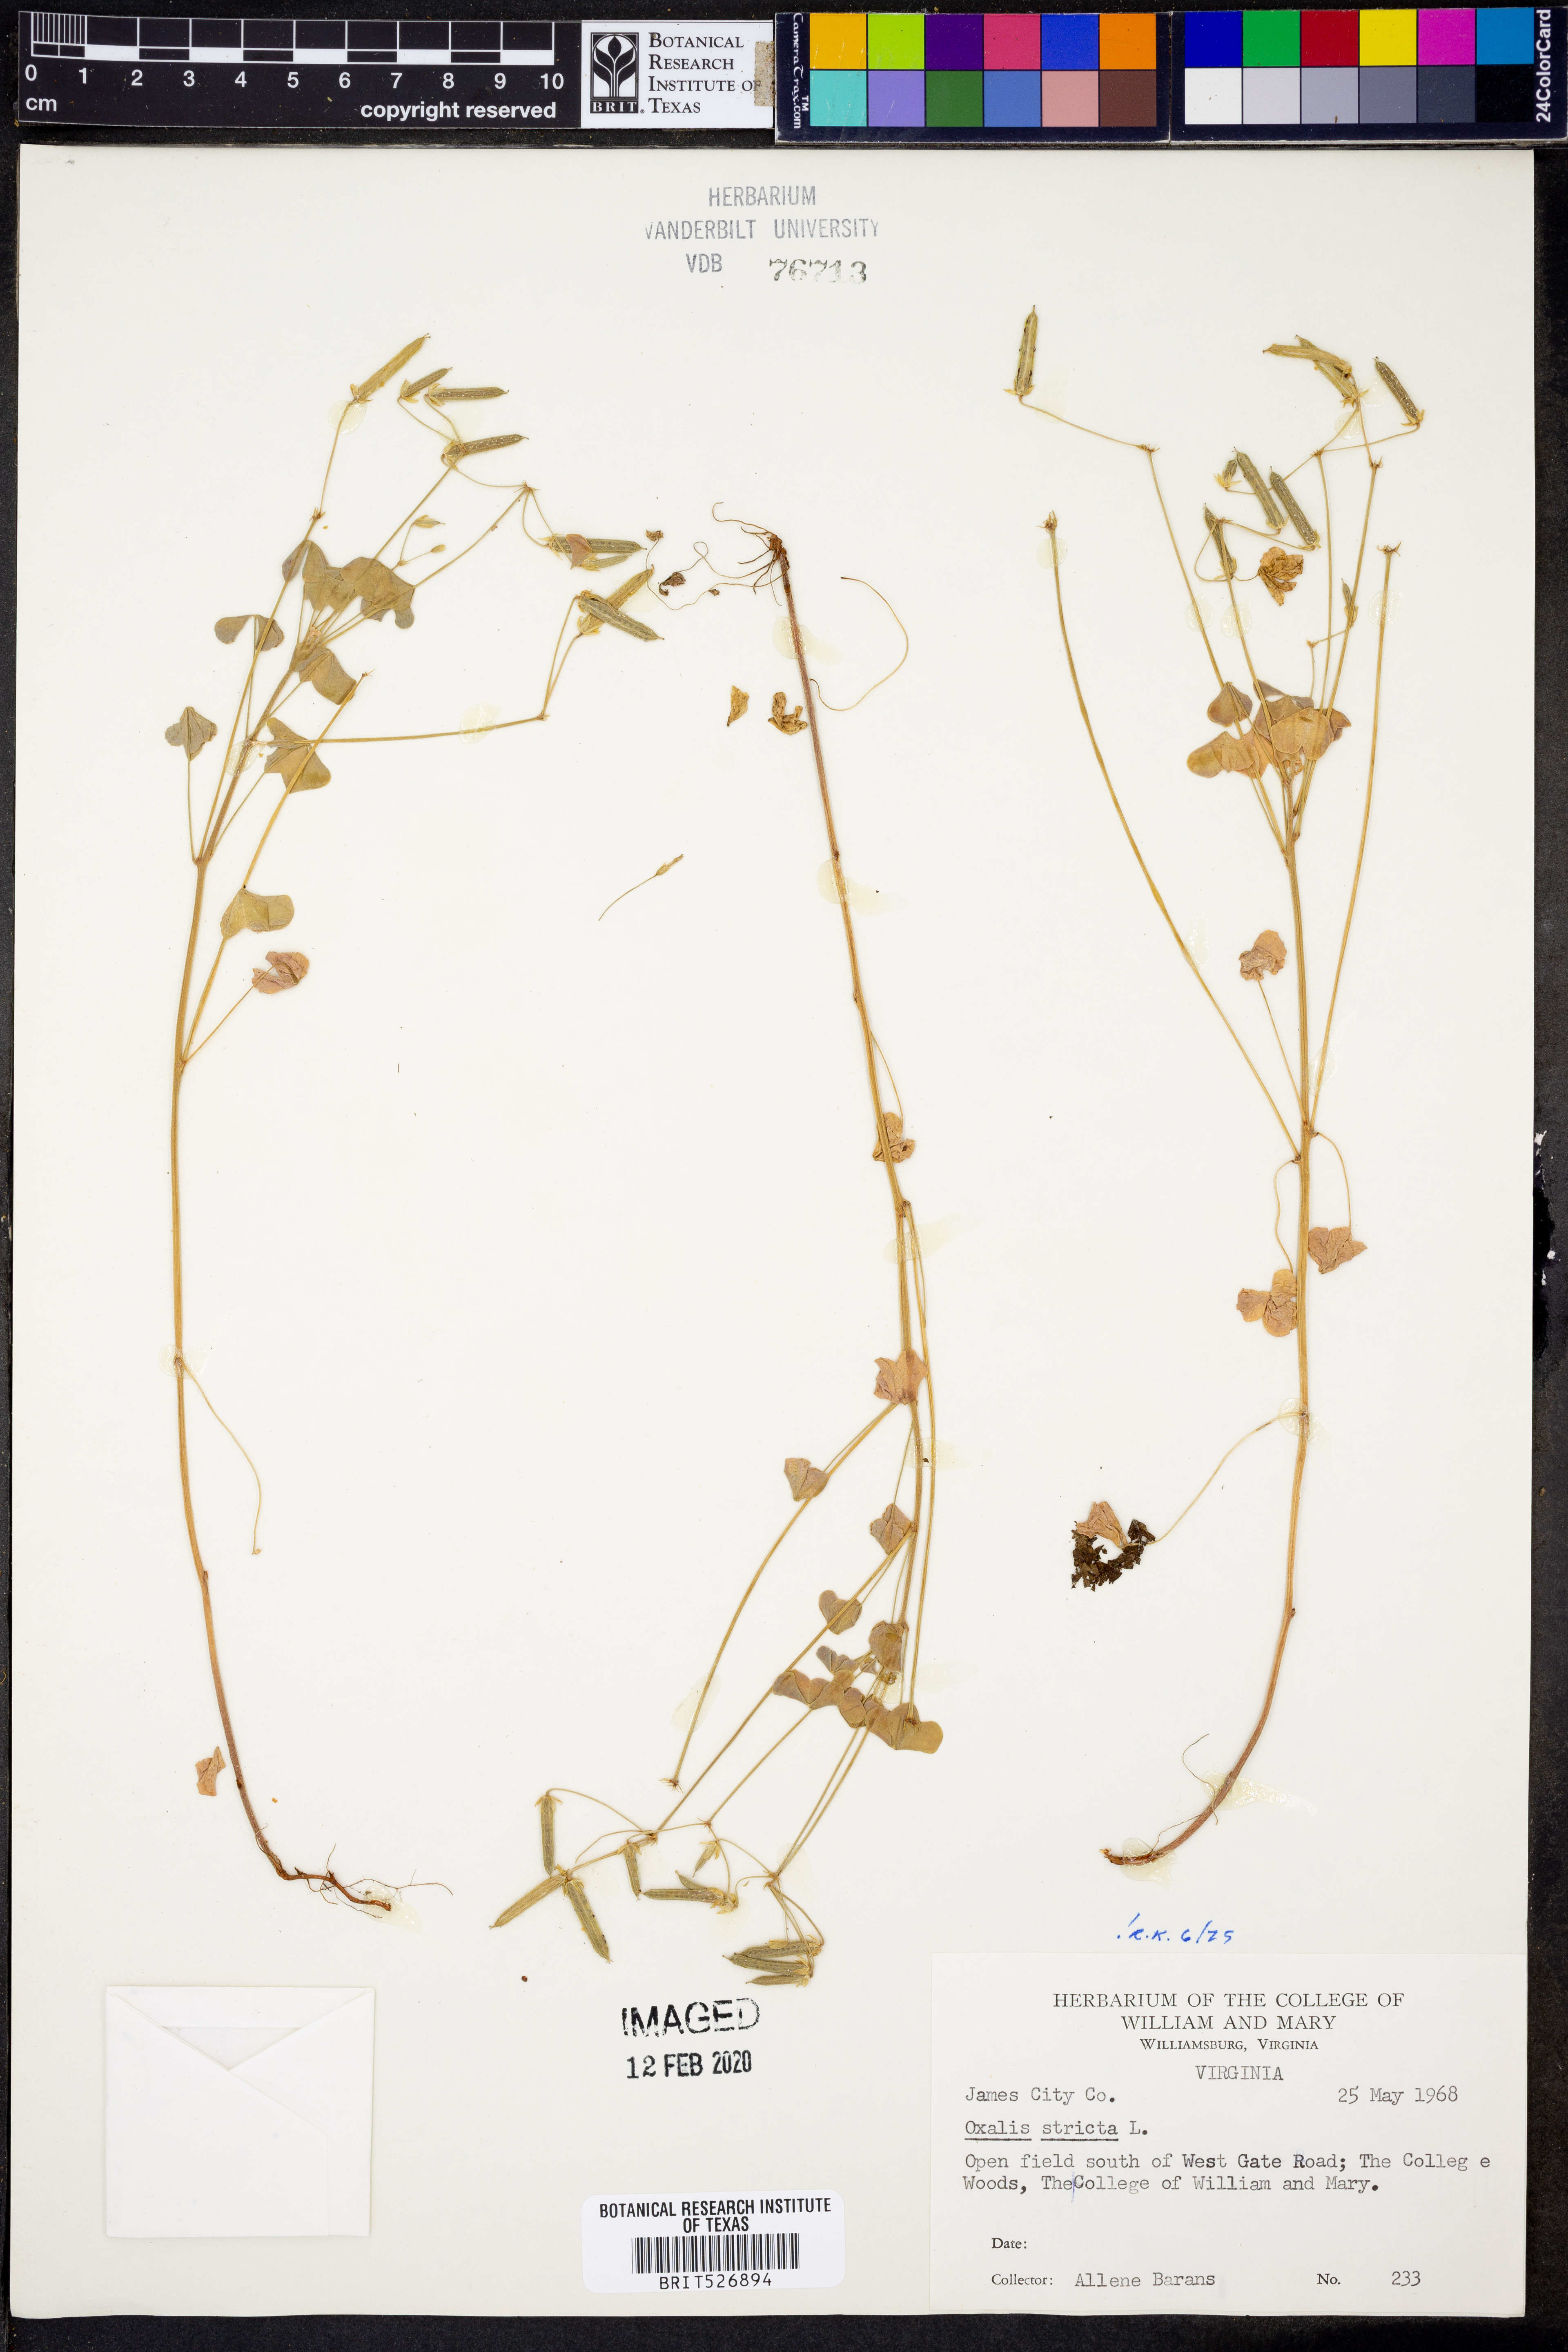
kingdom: Plantae
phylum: Tracheophyta
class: Magnoliopsida
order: Oxalidales
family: Oxalidaceae
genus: Oxalis
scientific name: Oxalis stricta
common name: Upright yellow-sorrel
